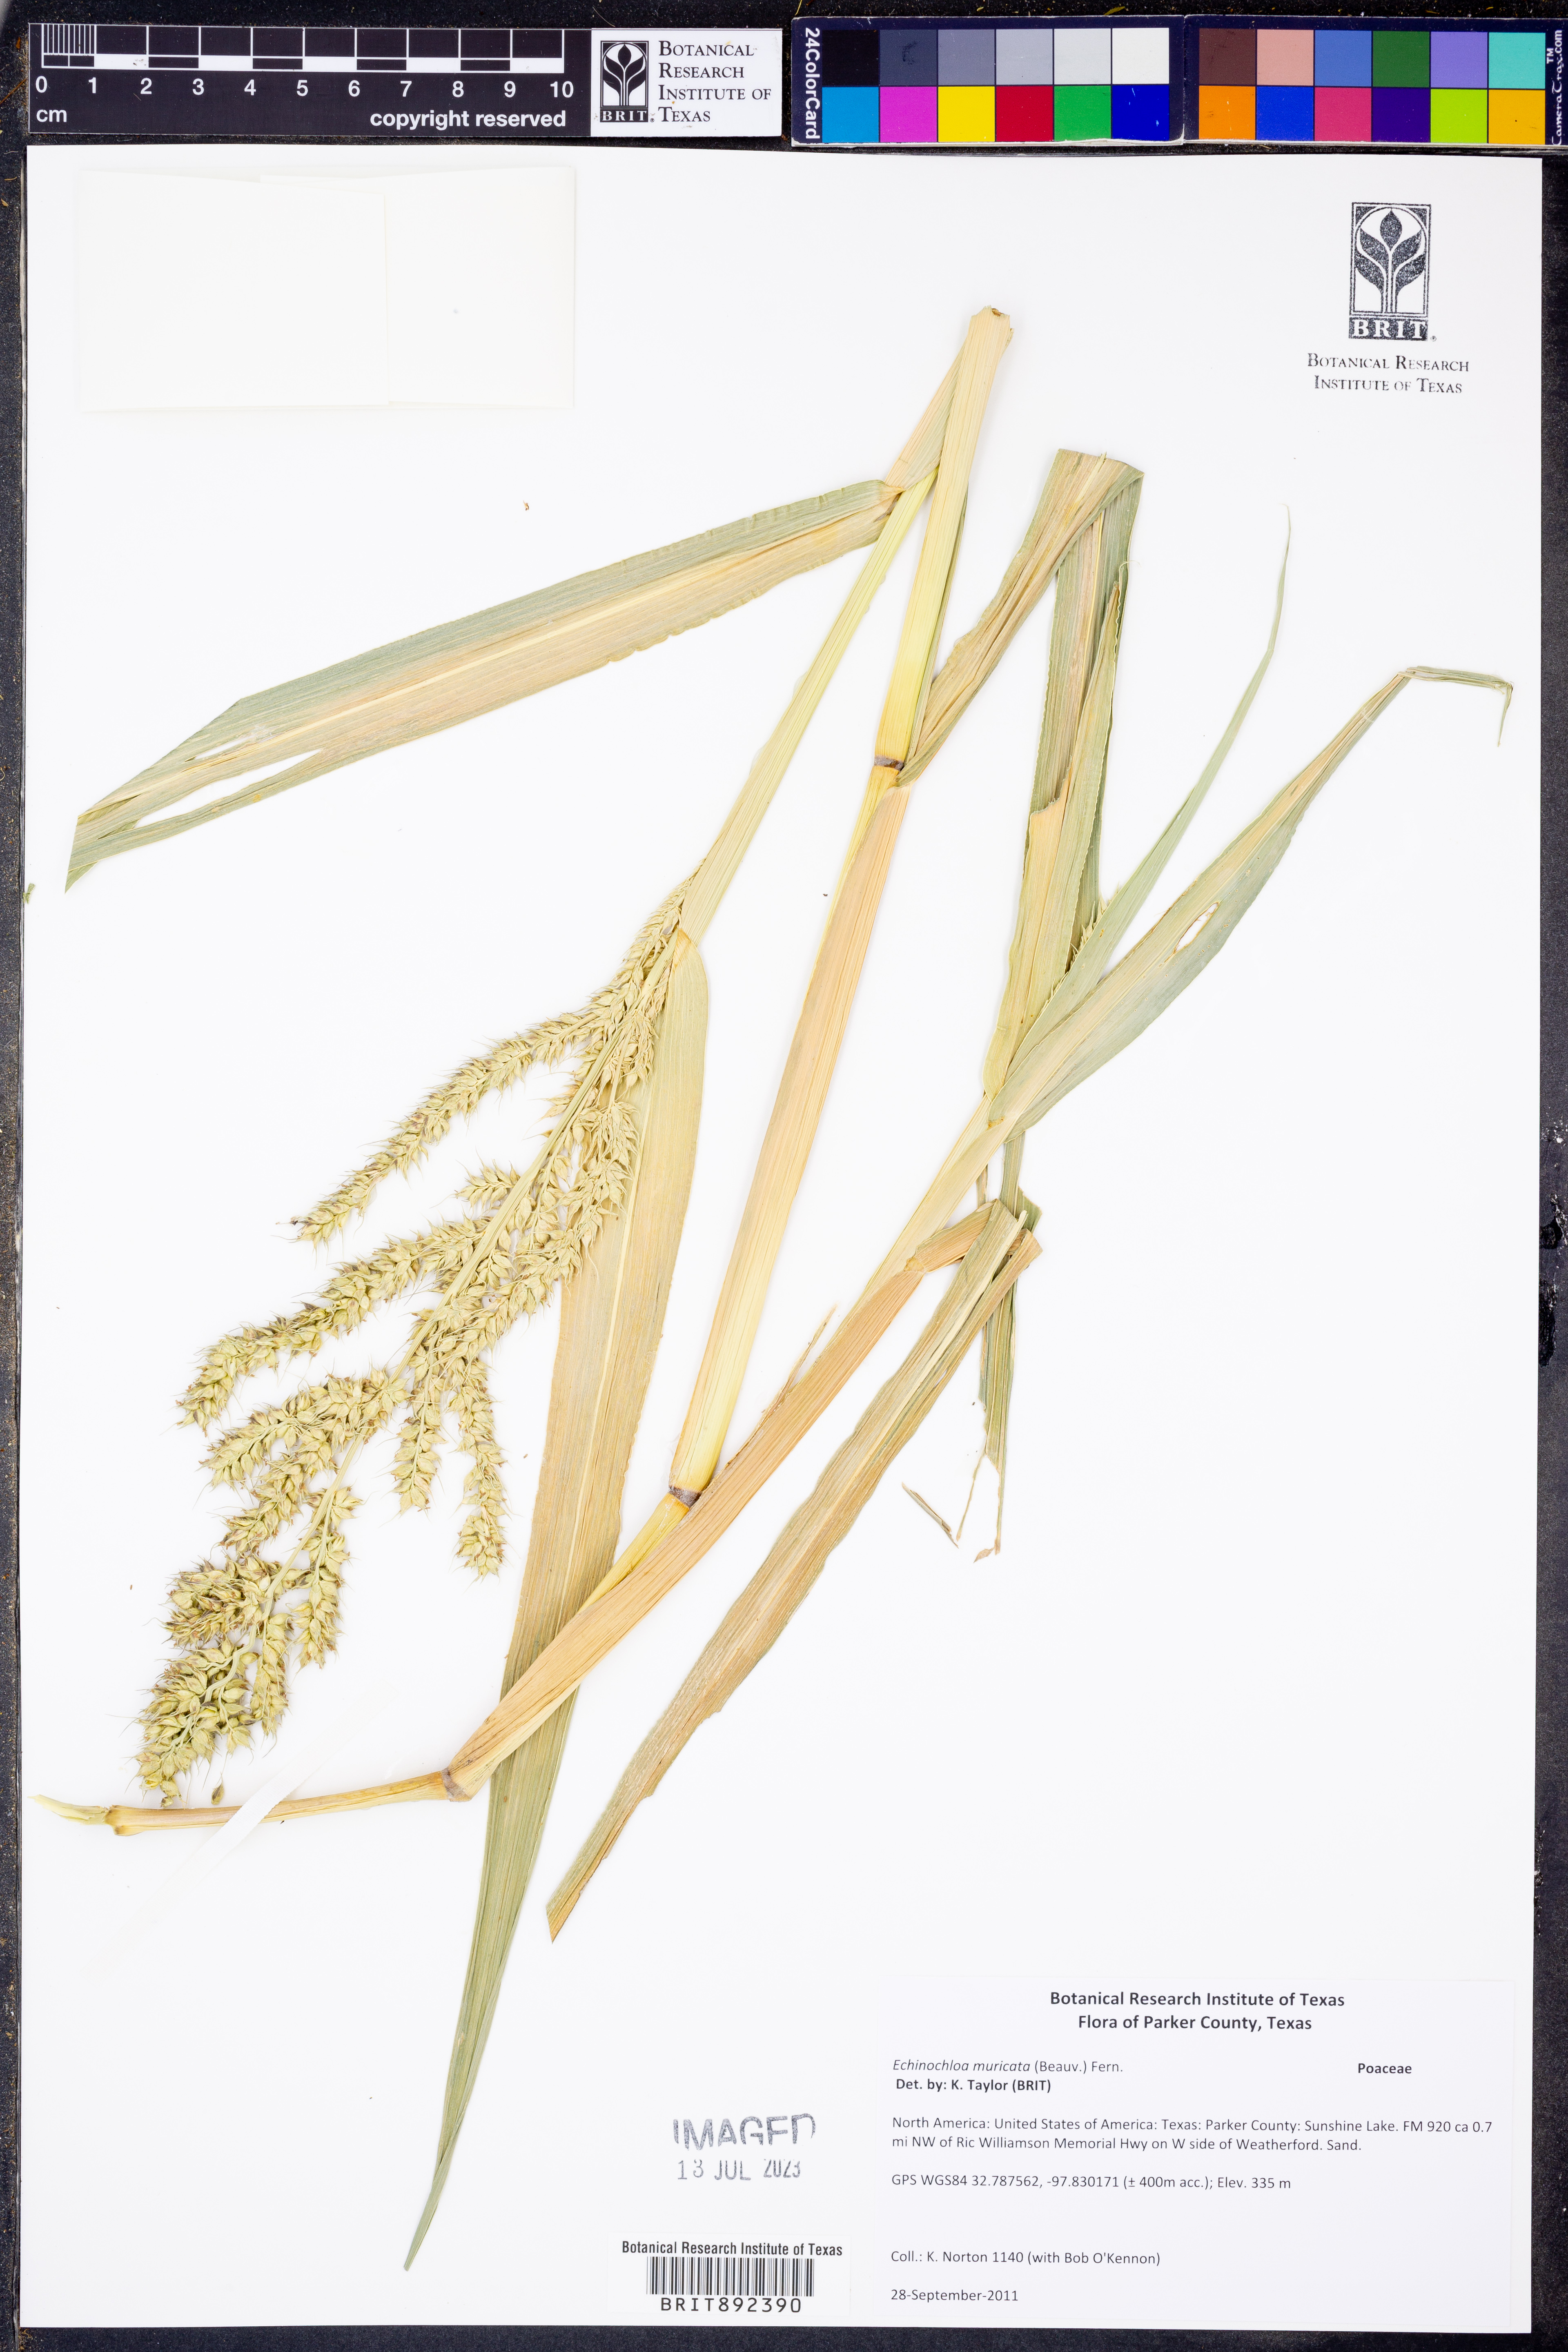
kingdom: Plantae
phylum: Tracheophyta
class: Liliopsida
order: Poales
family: Poaceae
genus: Echinochloa
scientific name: Echinochloa muricata
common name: American barnyard grass
